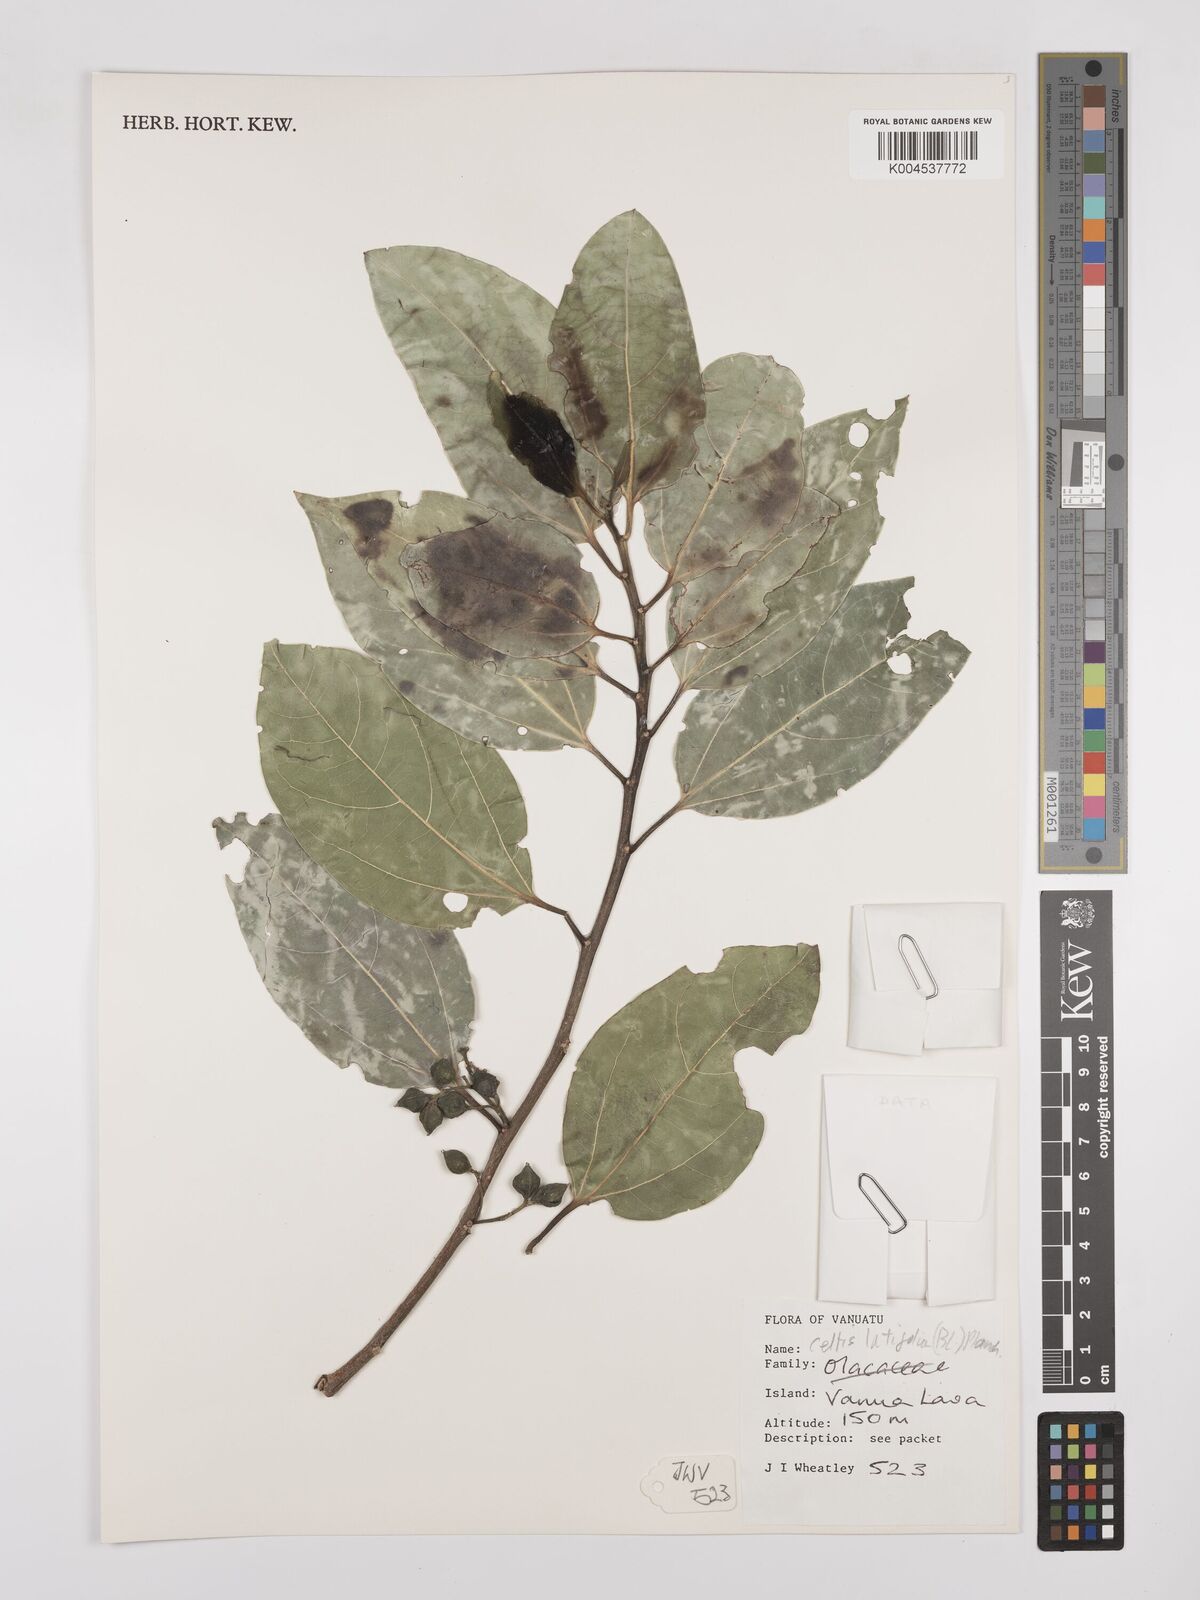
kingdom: Plantae
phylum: Tracheophyta
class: Magnoliopsida
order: Rosales
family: Cannabaceae
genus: Celtis
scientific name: Celtis latifolia
